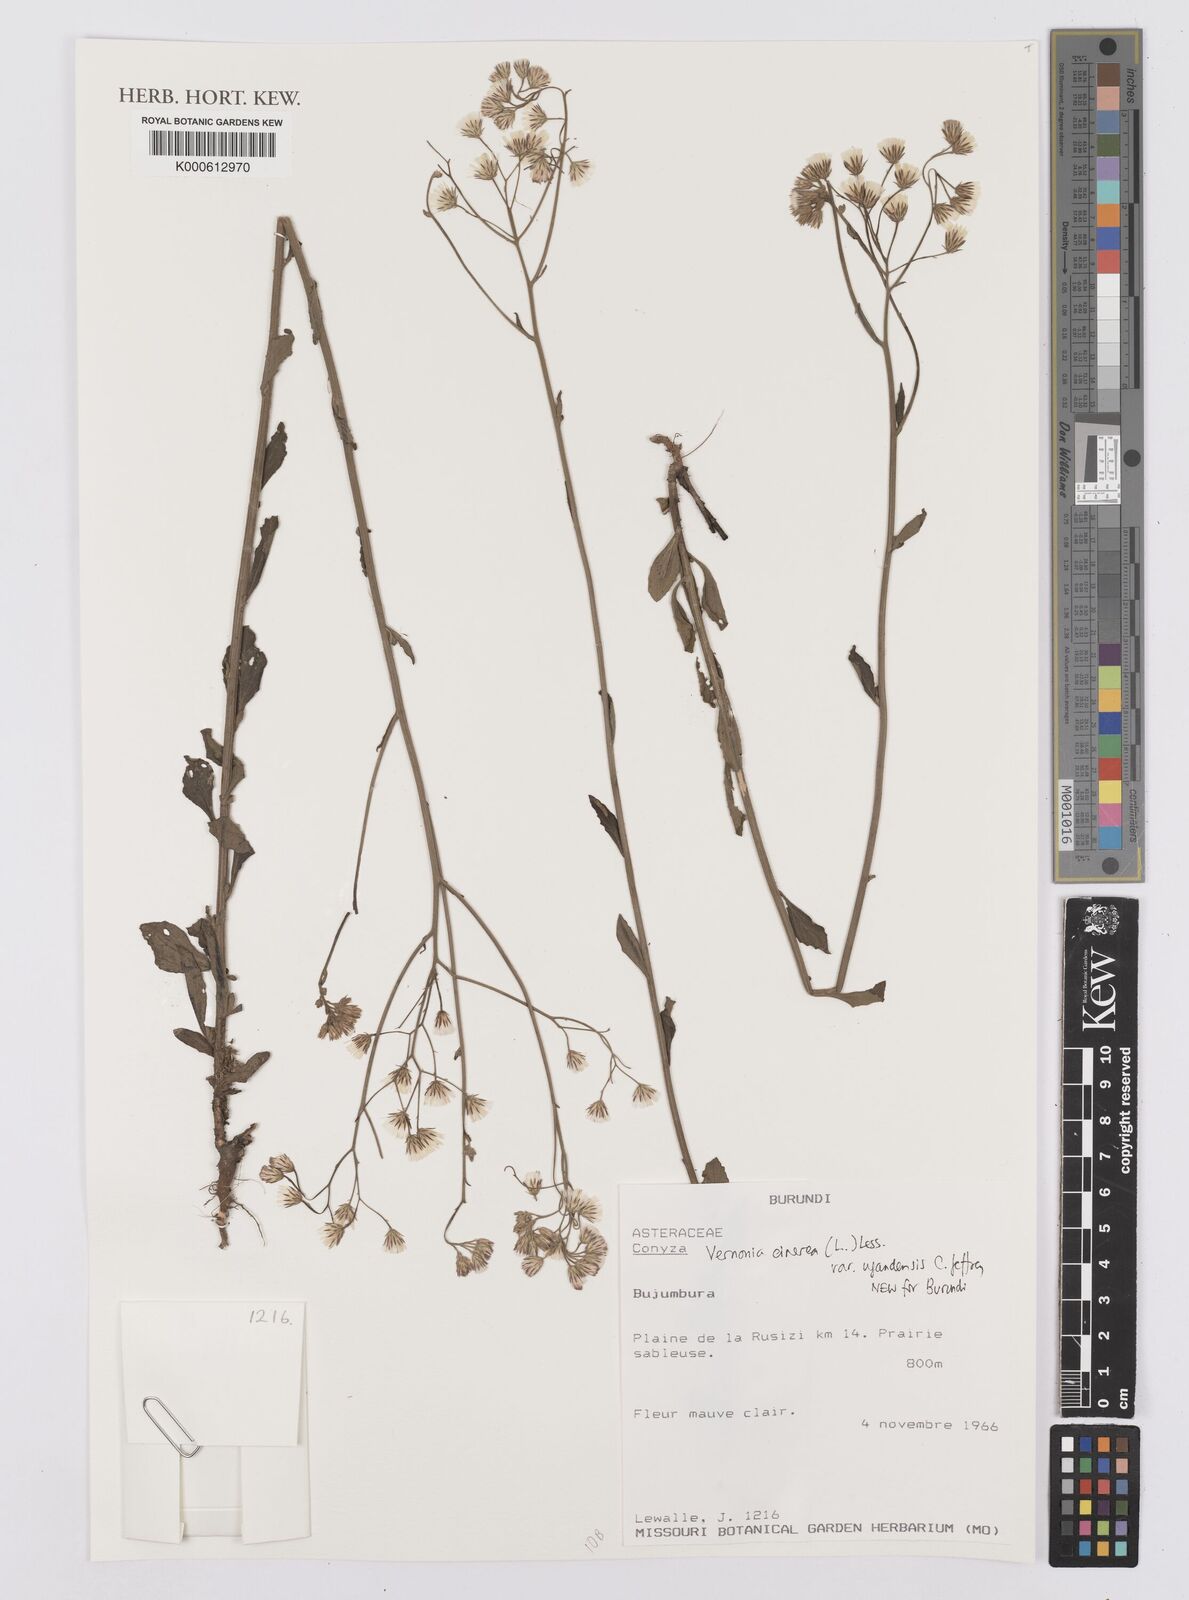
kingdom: Plantae
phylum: Tracheophyta
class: Magnoliopsida
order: Asterales
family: Asteraceae
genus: Cyanthillium
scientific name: Cyanthillium cinereum
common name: Little ironweed
